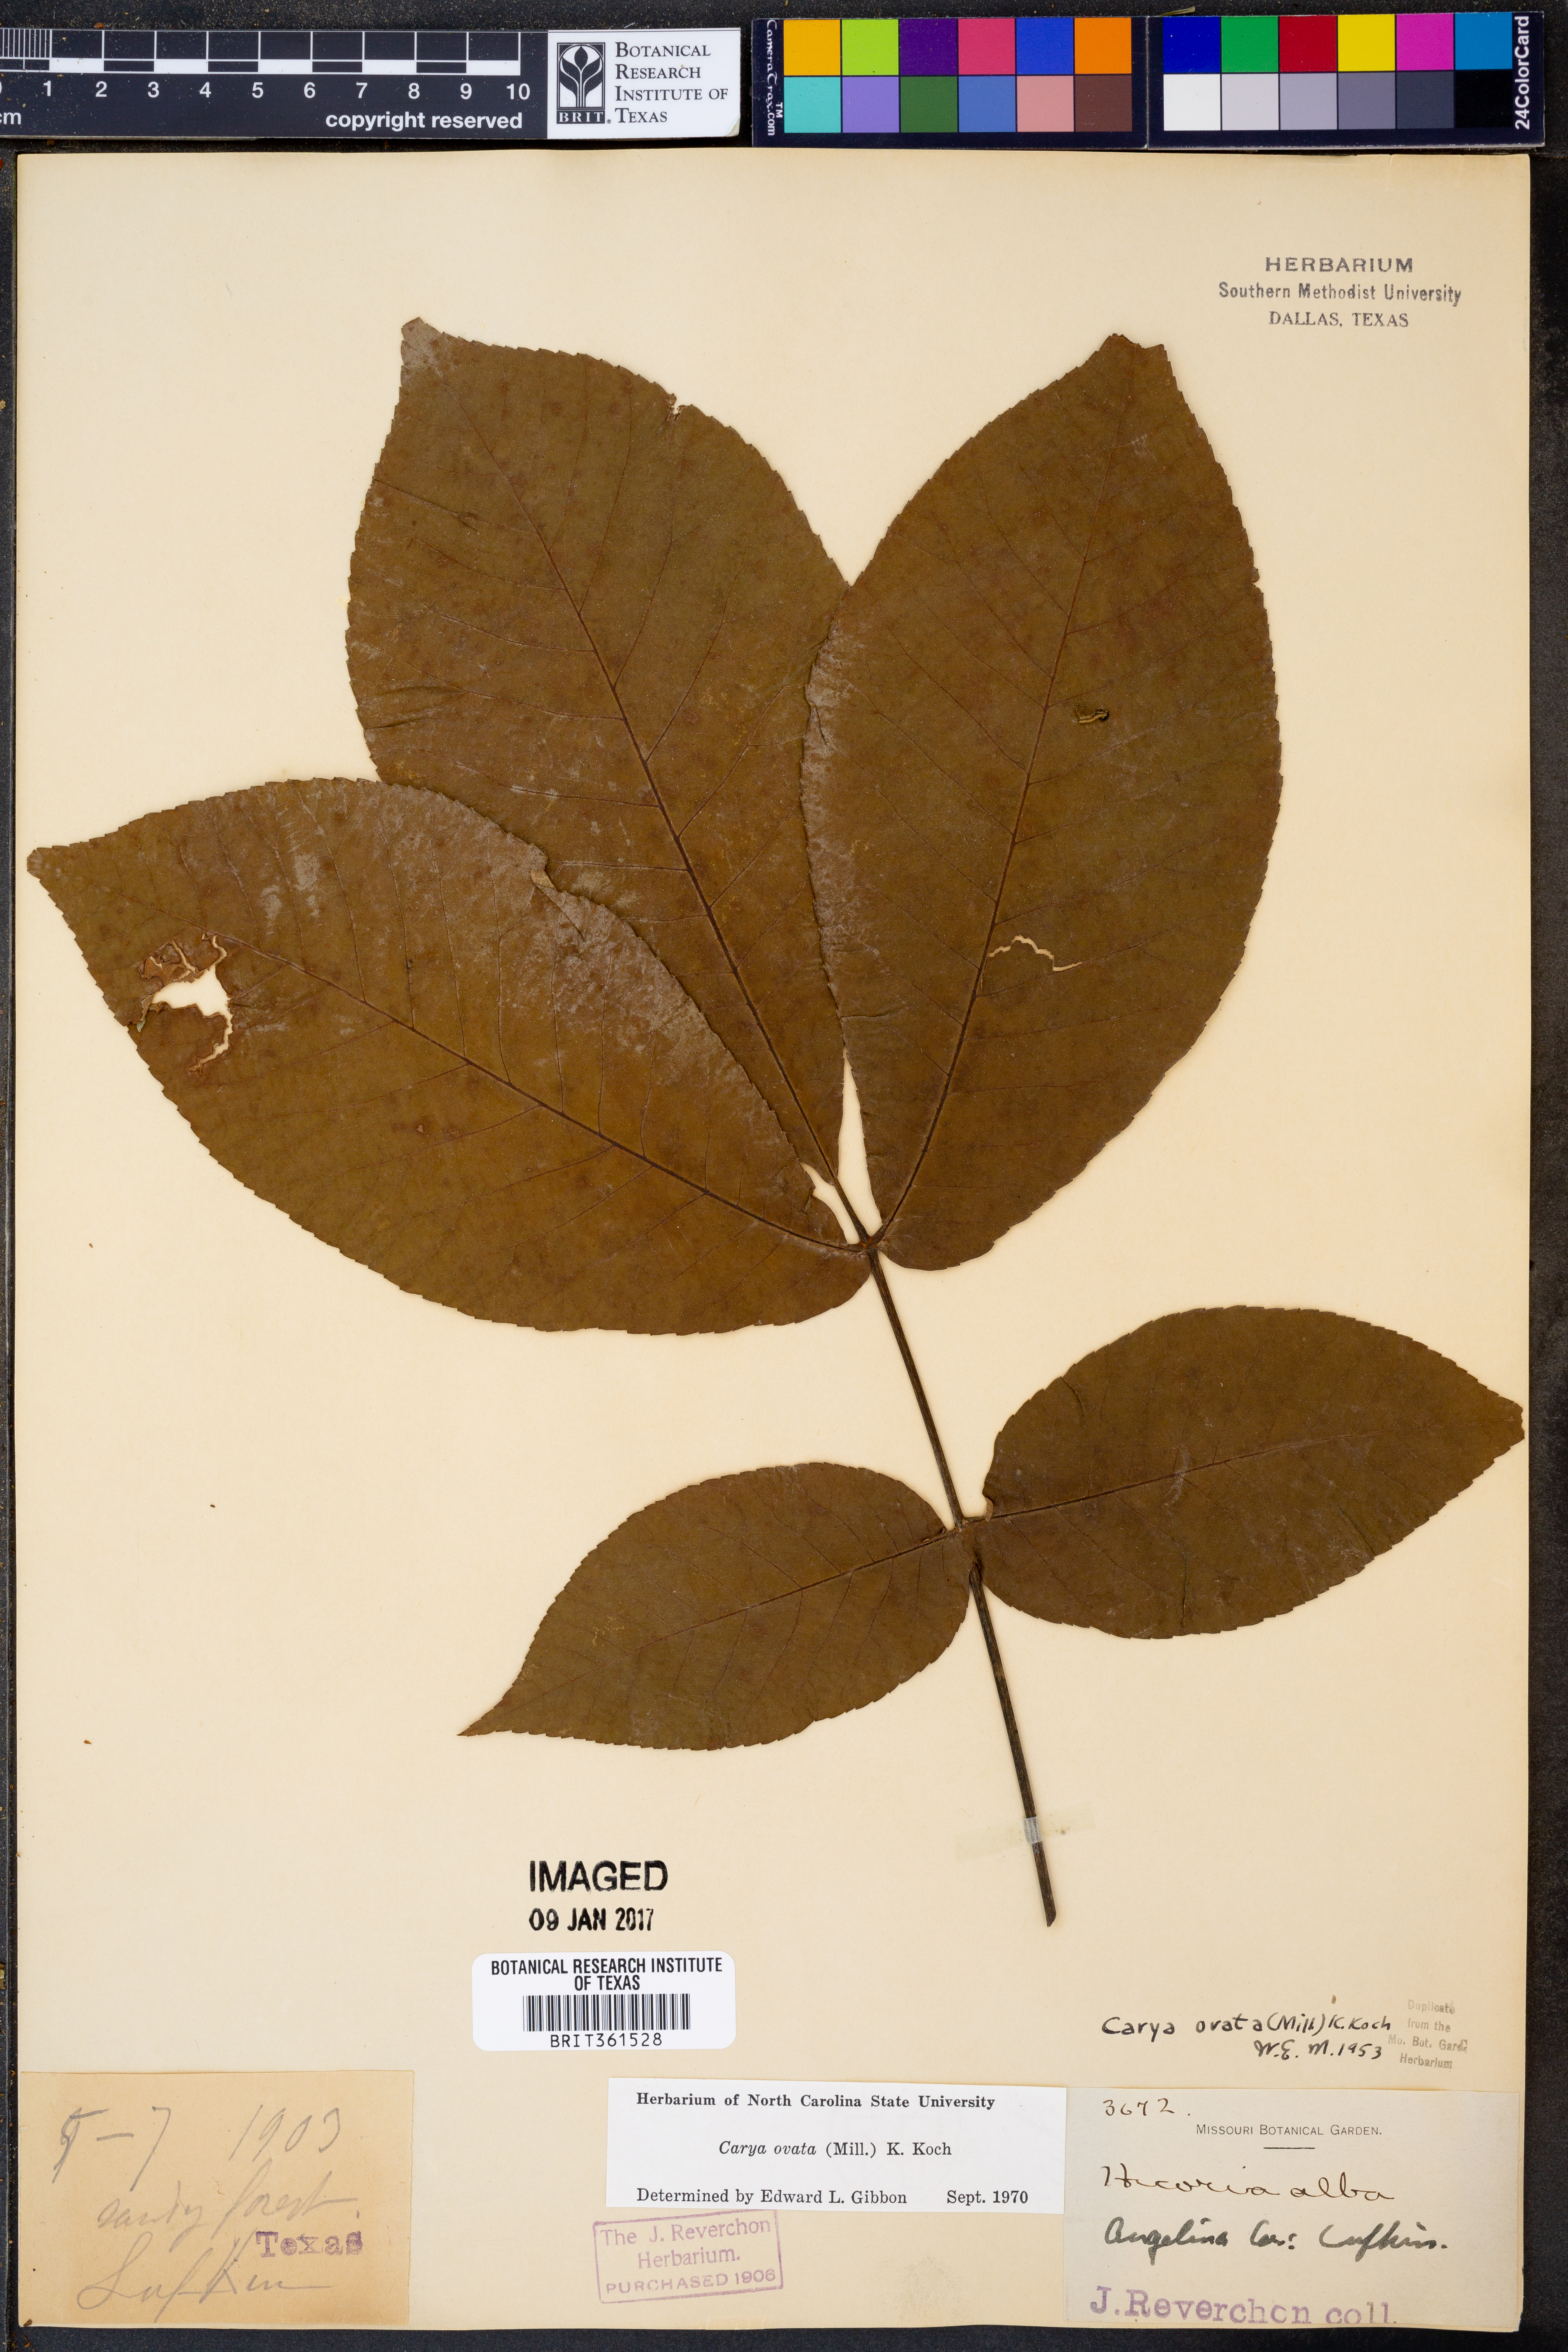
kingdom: Plantae
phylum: Tracheophyta
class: Magnoliopsida
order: Fagales
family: Juglandaceae
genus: Carya
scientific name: Carya ovata
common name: Shagbark hickory
